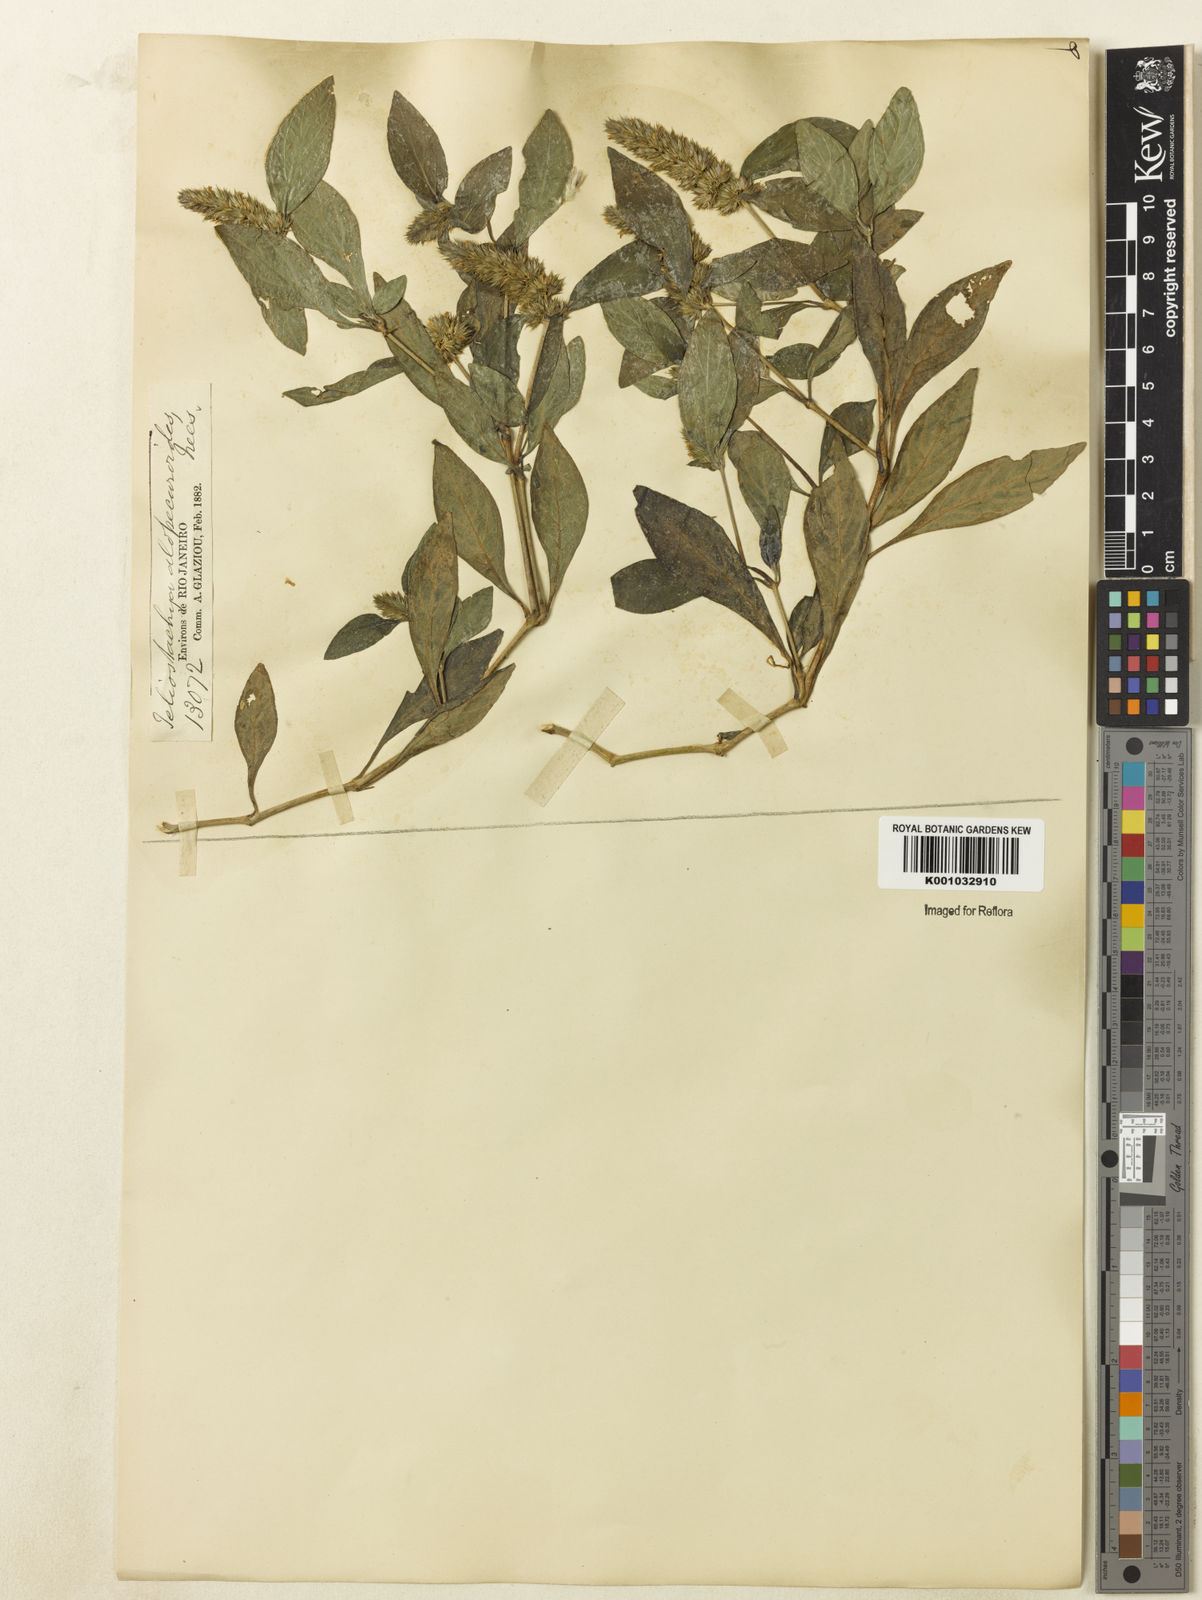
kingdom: Plantae
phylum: Tracheophyta
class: Magnoliopsida
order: Lamiales
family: Acanthaceae
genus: Lepidagathis
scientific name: Lepidagathis alopecuroidea
